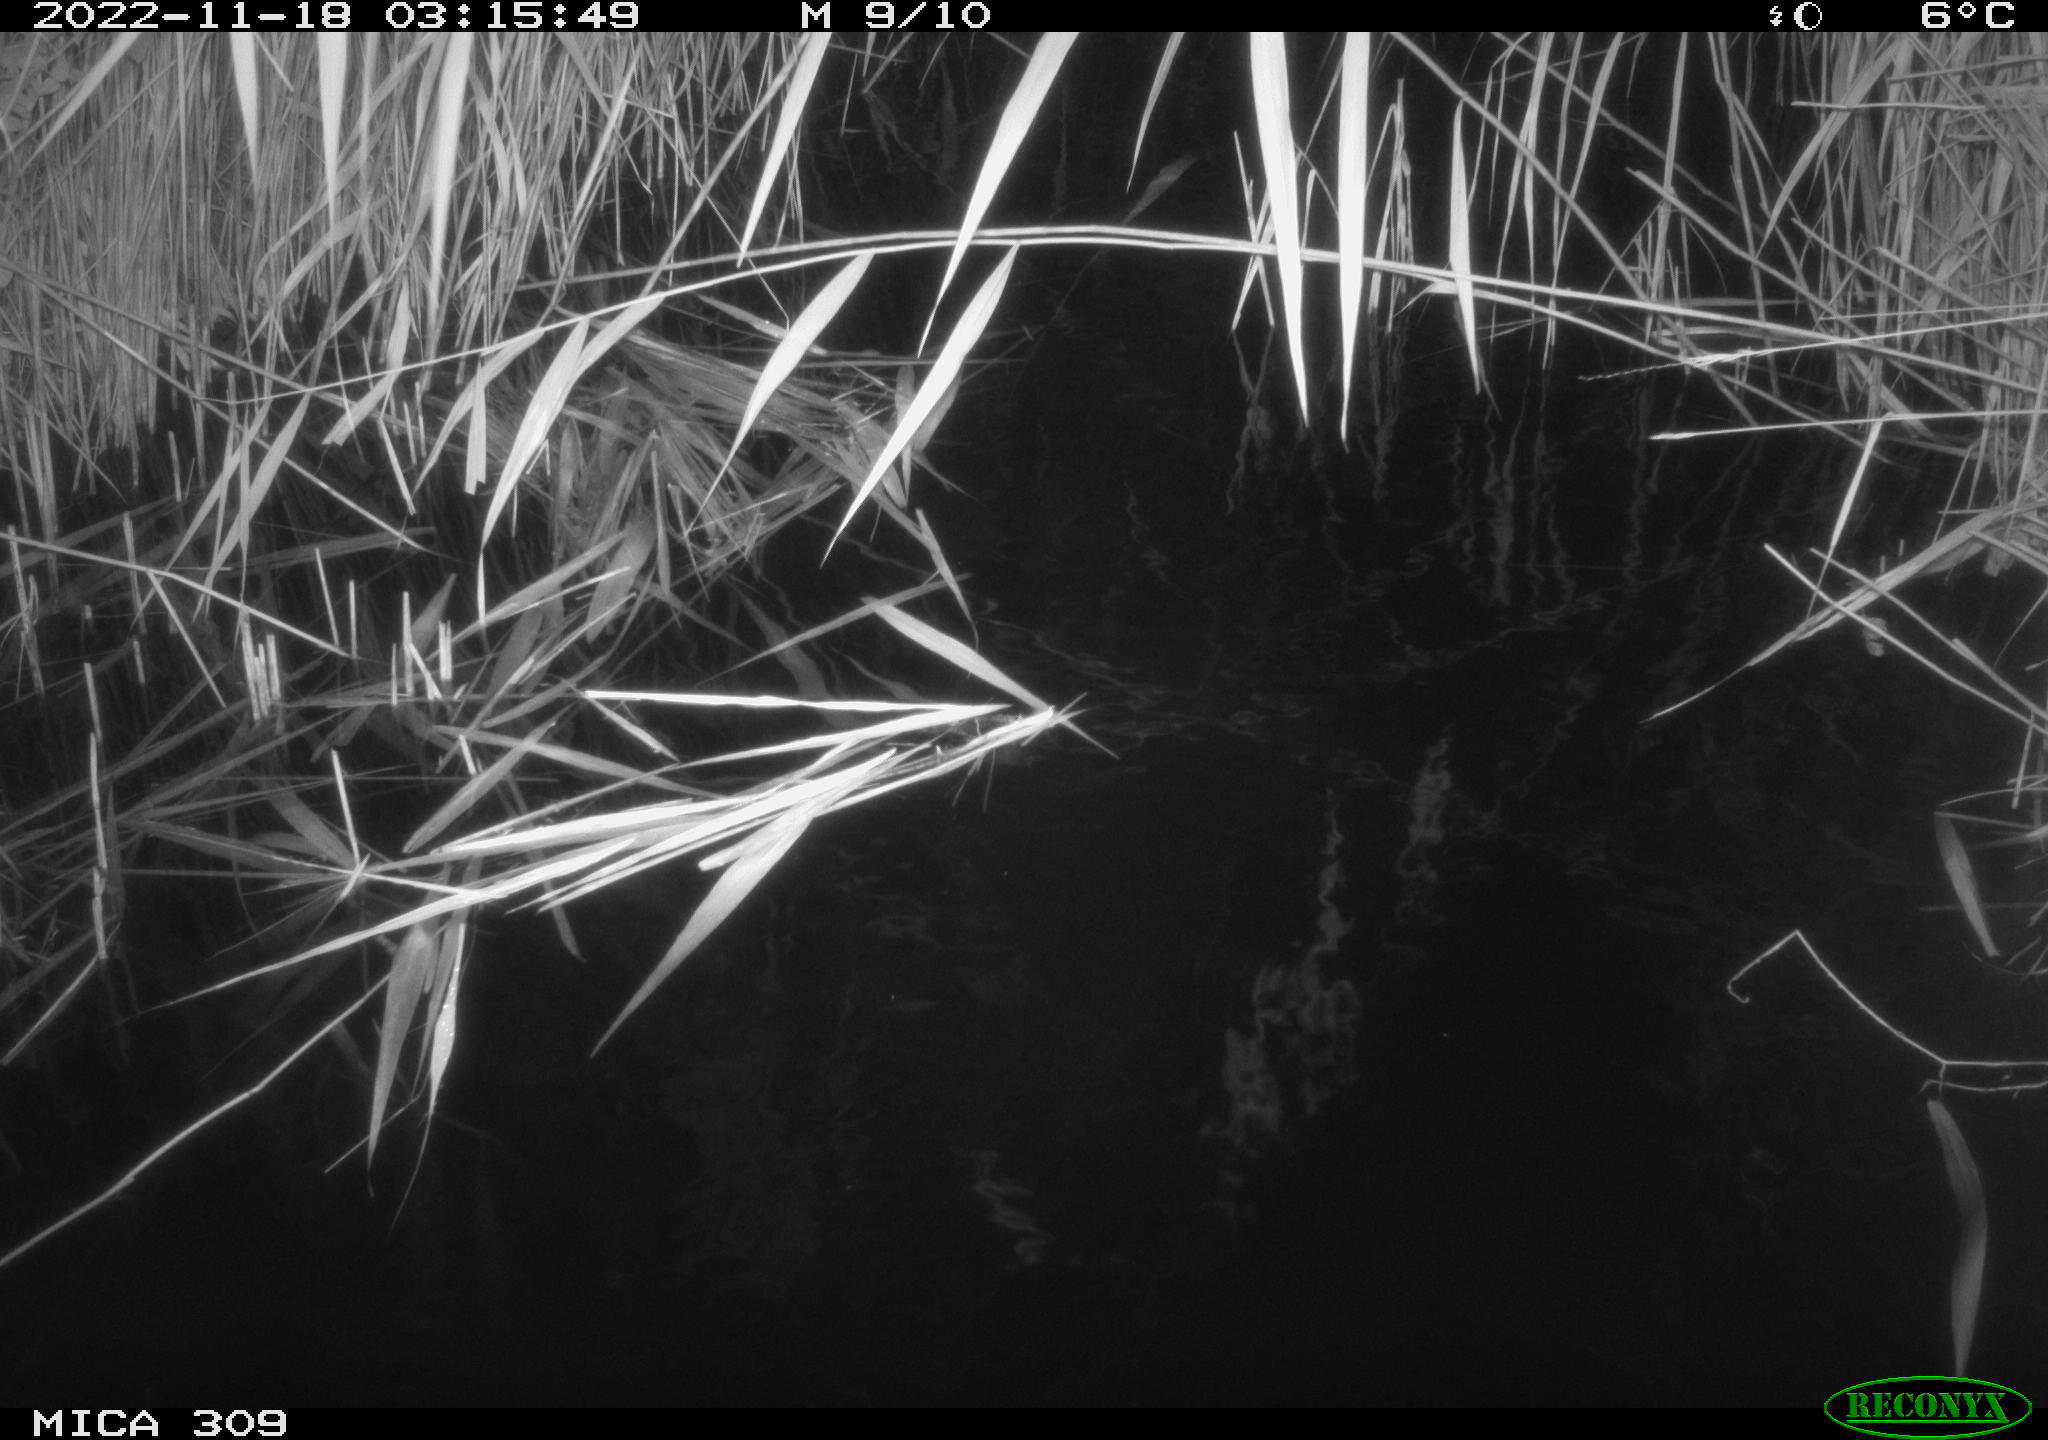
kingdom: Animalia
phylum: Chordata
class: Mammalia
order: Rodentia
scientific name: Rodentia
